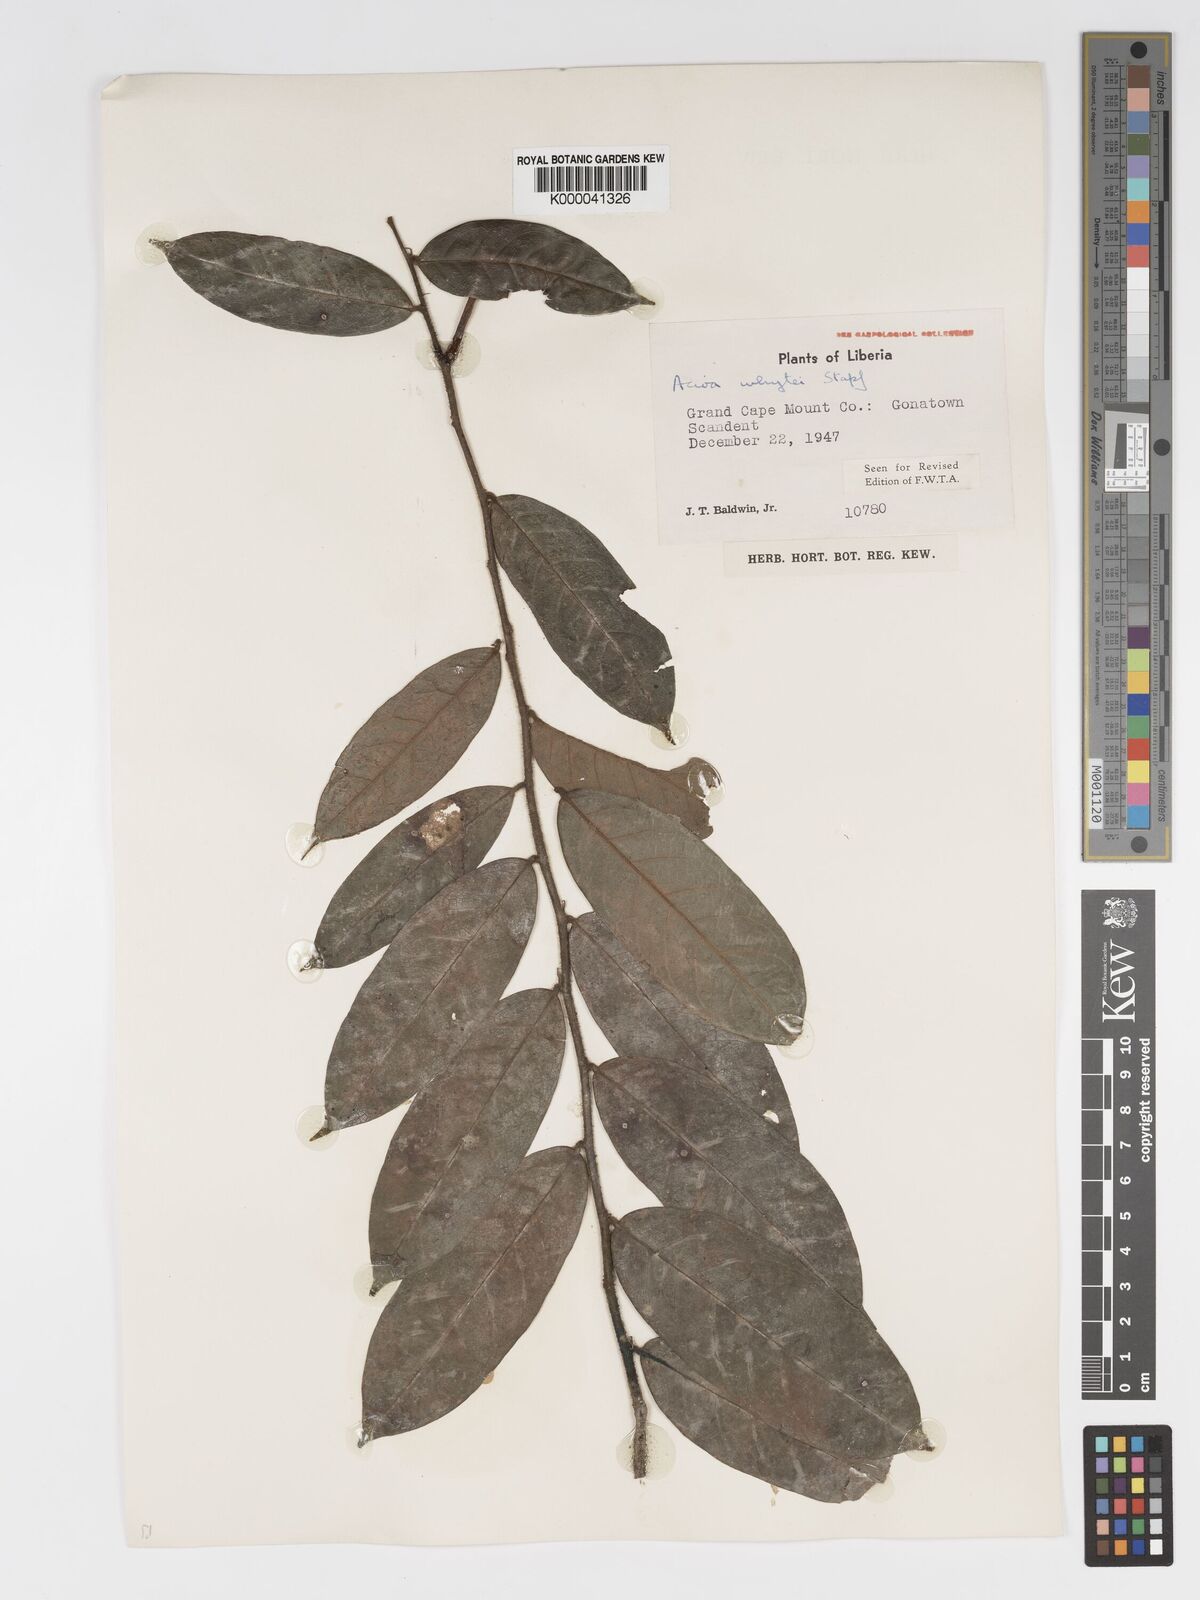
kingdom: Plantae
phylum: Tracheophyta
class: Magnoliopsida
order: Malpighiales
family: Chrysobalanaceae
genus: Dactyladenia
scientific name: Dactyladenia whytei
